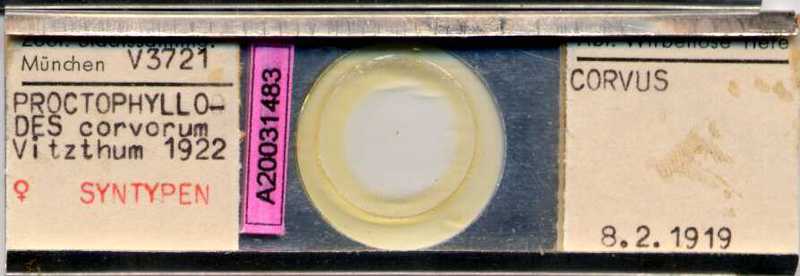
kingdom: Animalia
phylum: Arthropoda
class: Arachnida
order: Sarcoptiformes
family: Proctophyllodidae
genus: Proctophyllodes
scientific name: Proctophyllodes corvorum
